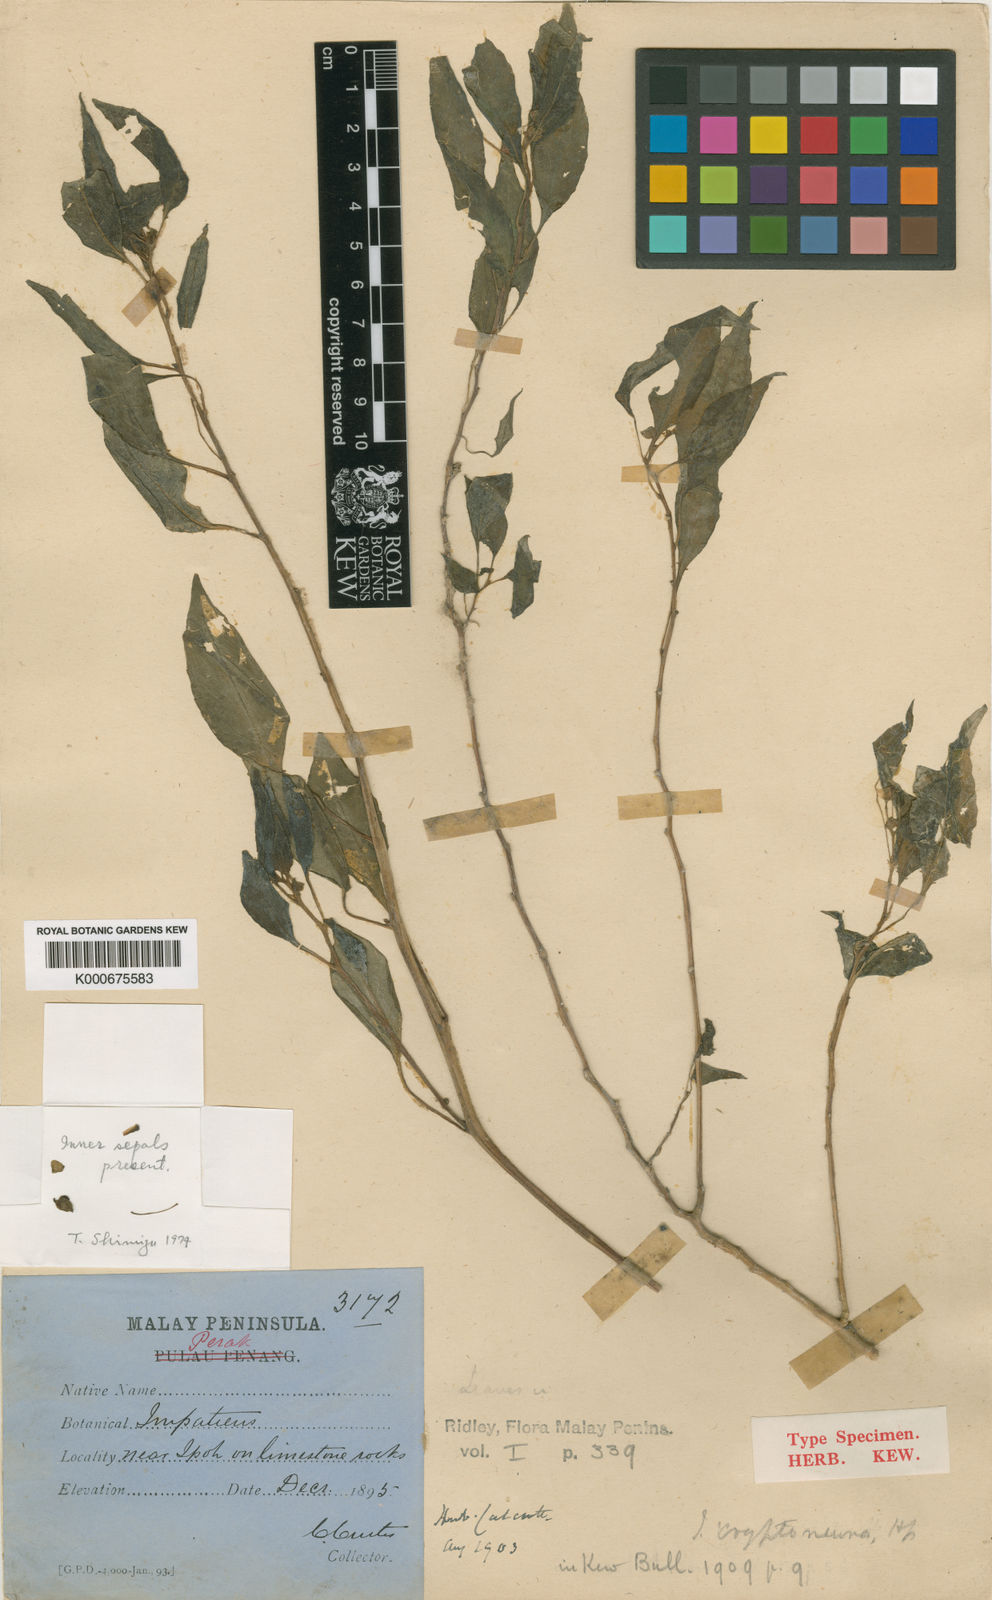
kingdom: Plantae
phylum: Tracheophyta
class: Magnoliopsida
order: Ericales
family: Balsaminaceae
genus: Impatiens
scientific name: Impatiens cryptoneura
